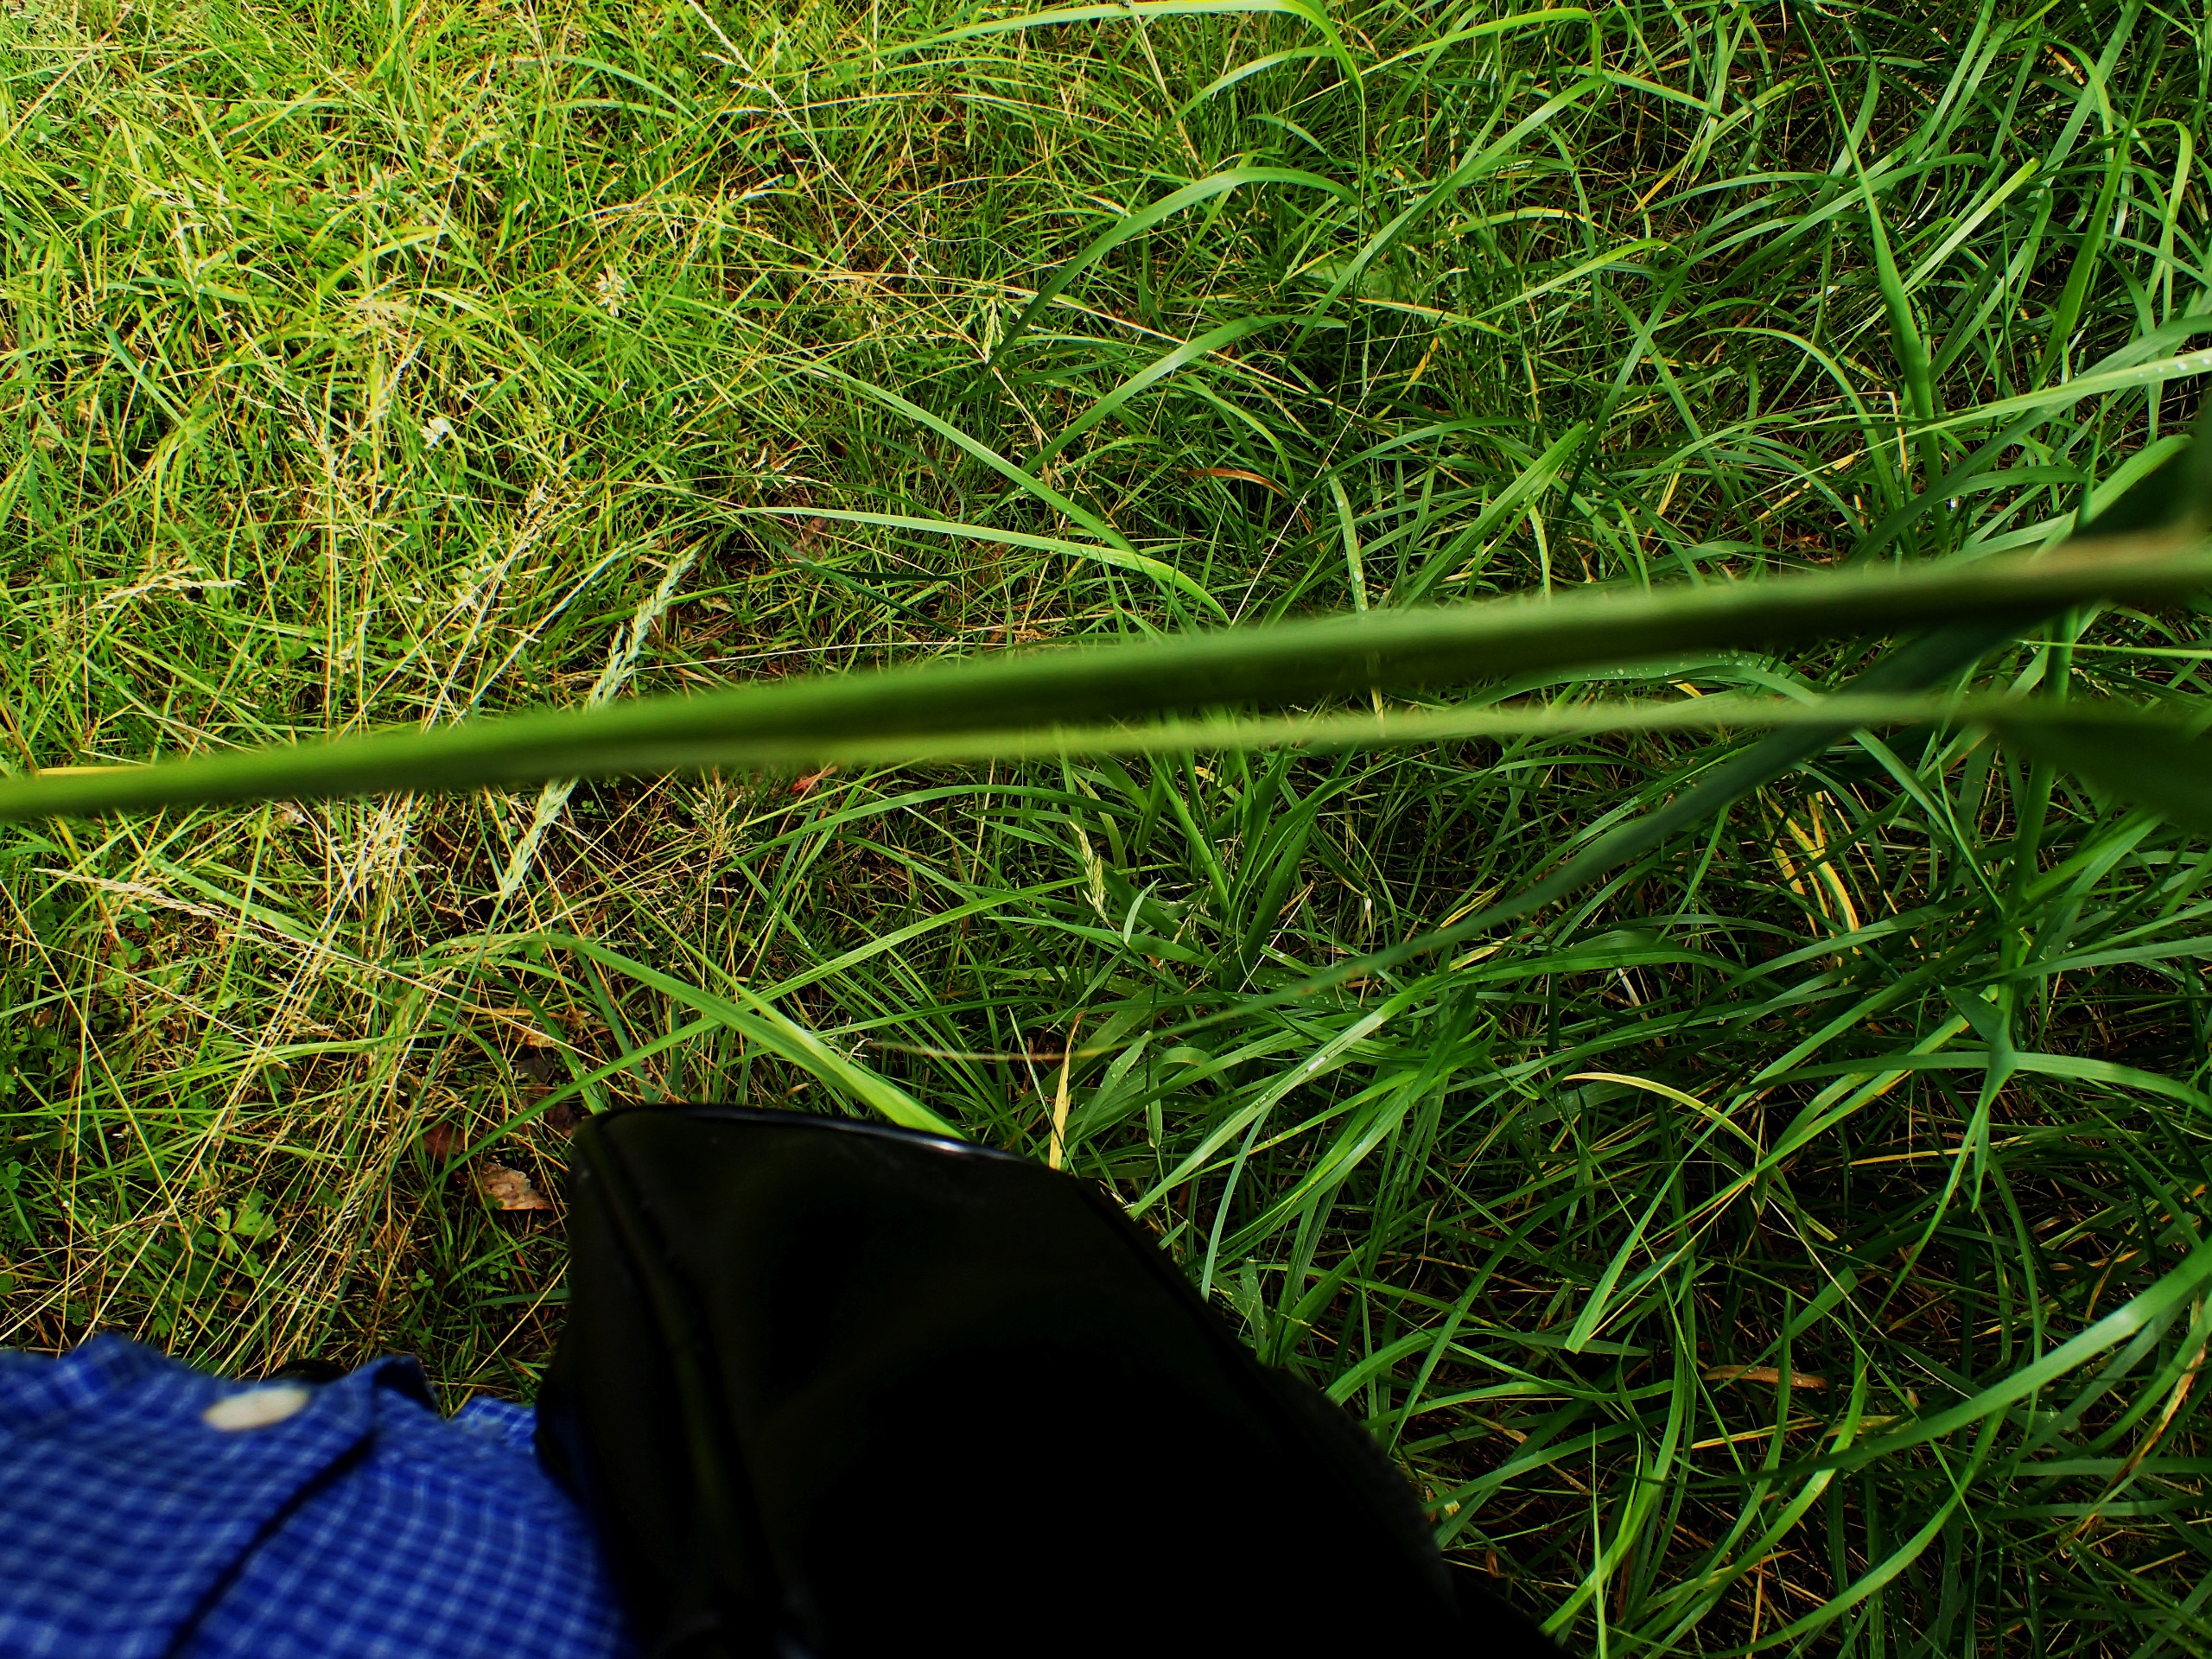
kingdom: Plantae
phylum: Tracheophyta
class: Liliopsida
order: Poales
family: Poaceae
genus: Calamagrostis
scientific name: Calamagrostis canescens
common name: Eng-rørhvene
